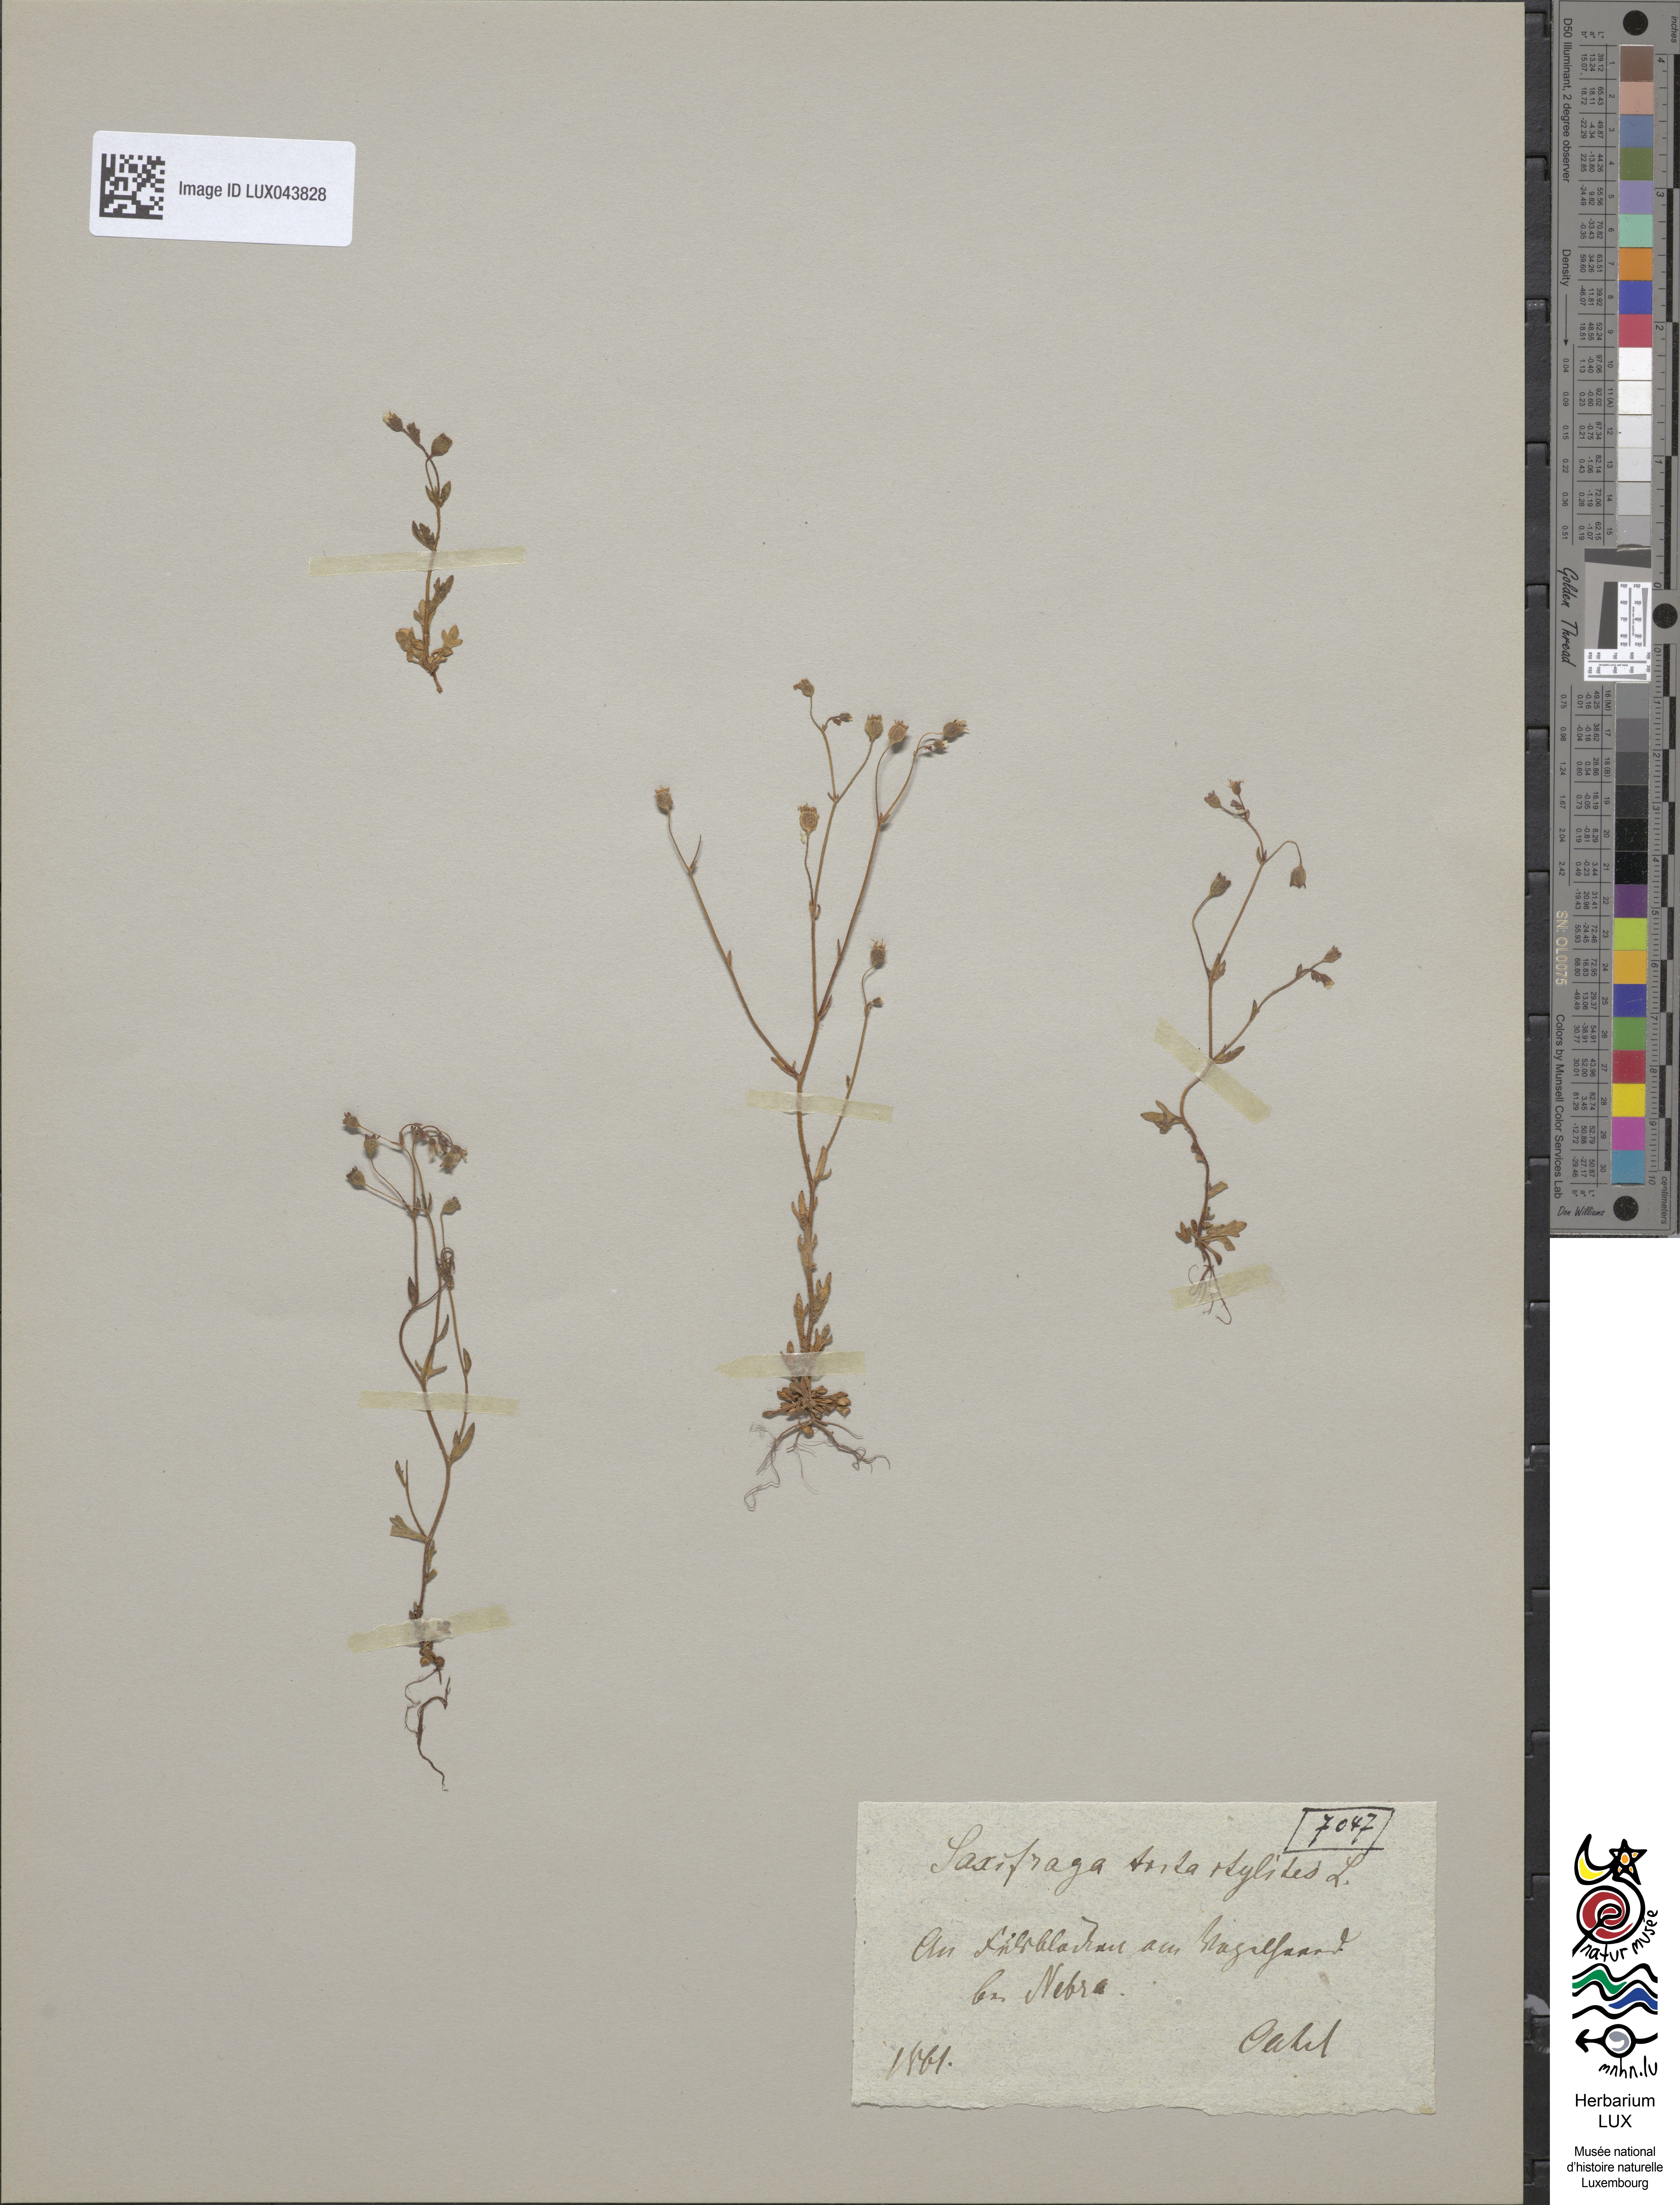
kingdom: Plantae
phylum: Tracheophyta
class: Magnoliopsida
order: Saxifragales
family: Saxifragaceae
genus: Saxifraga
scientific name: Saxifraga tridactylites
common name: Rue-leaved saxifrage
